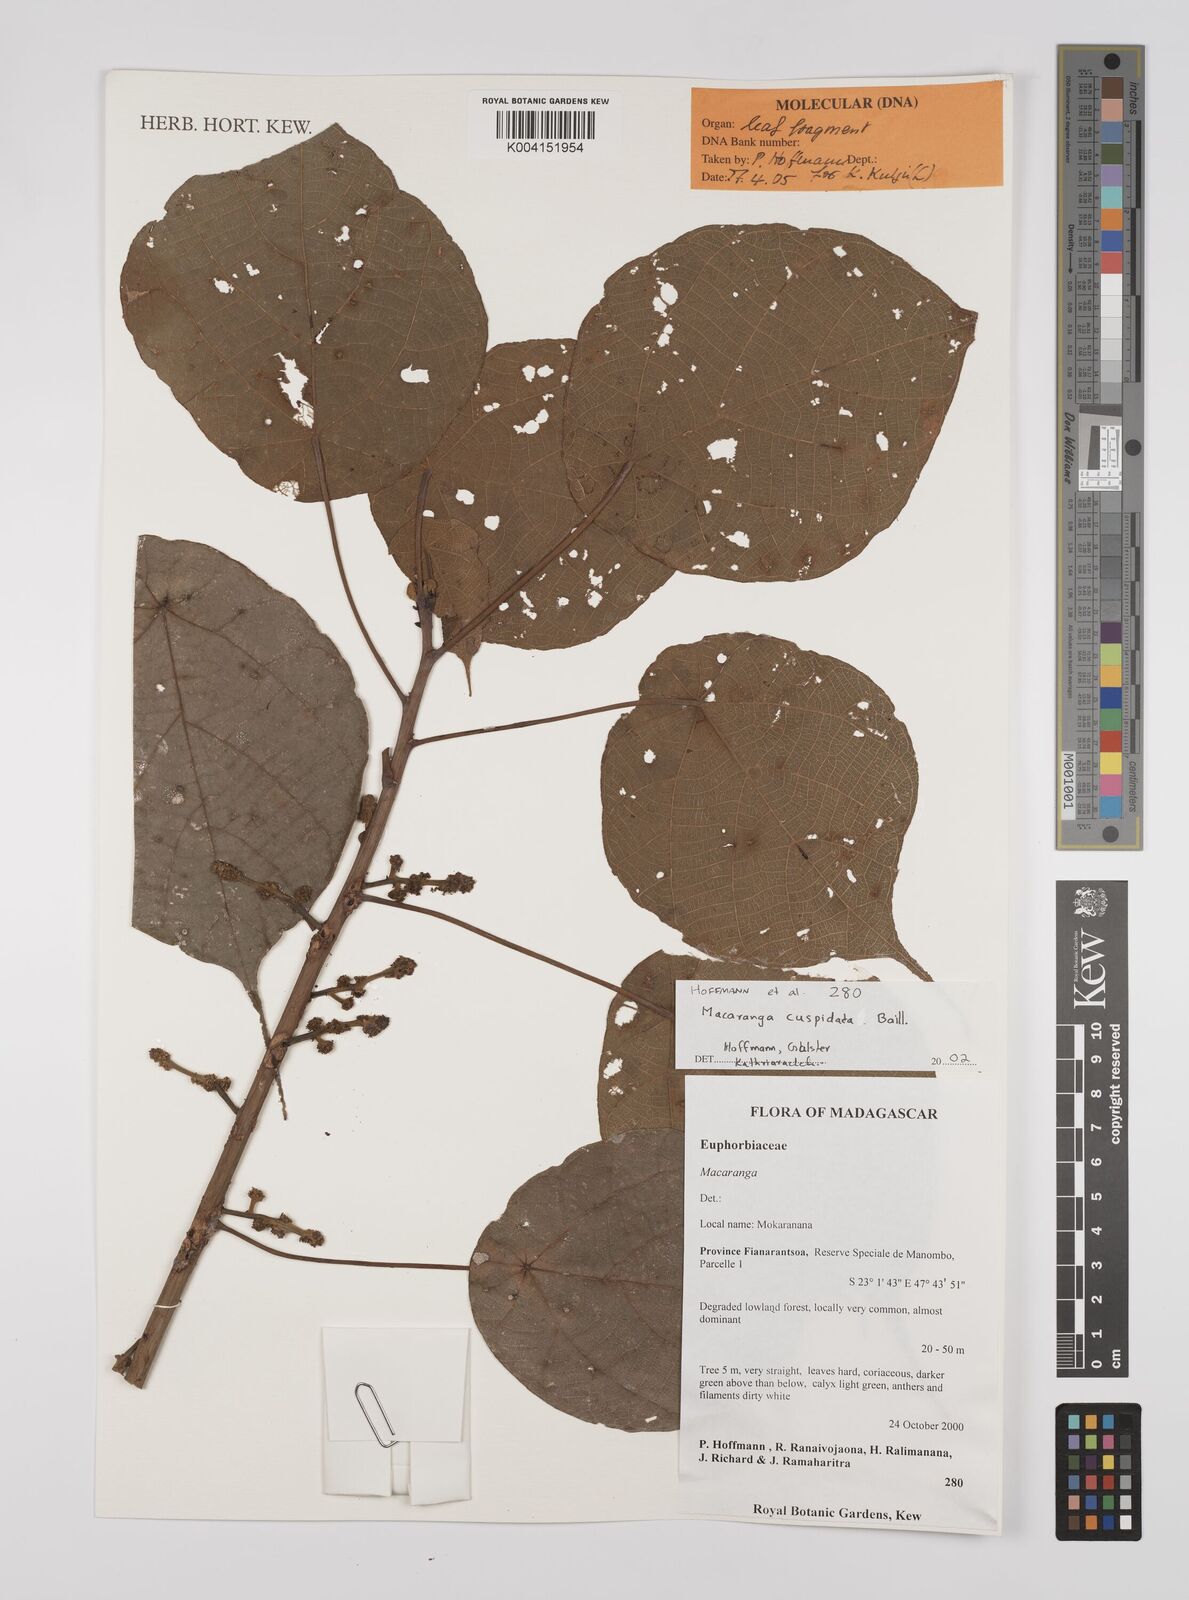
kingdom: Plantae
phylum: Tracheophyta
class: Magnoliopsida
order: Malpighiales
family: Euphorbiaceae
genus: Macaranga
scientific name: Macaranga cuspidata
